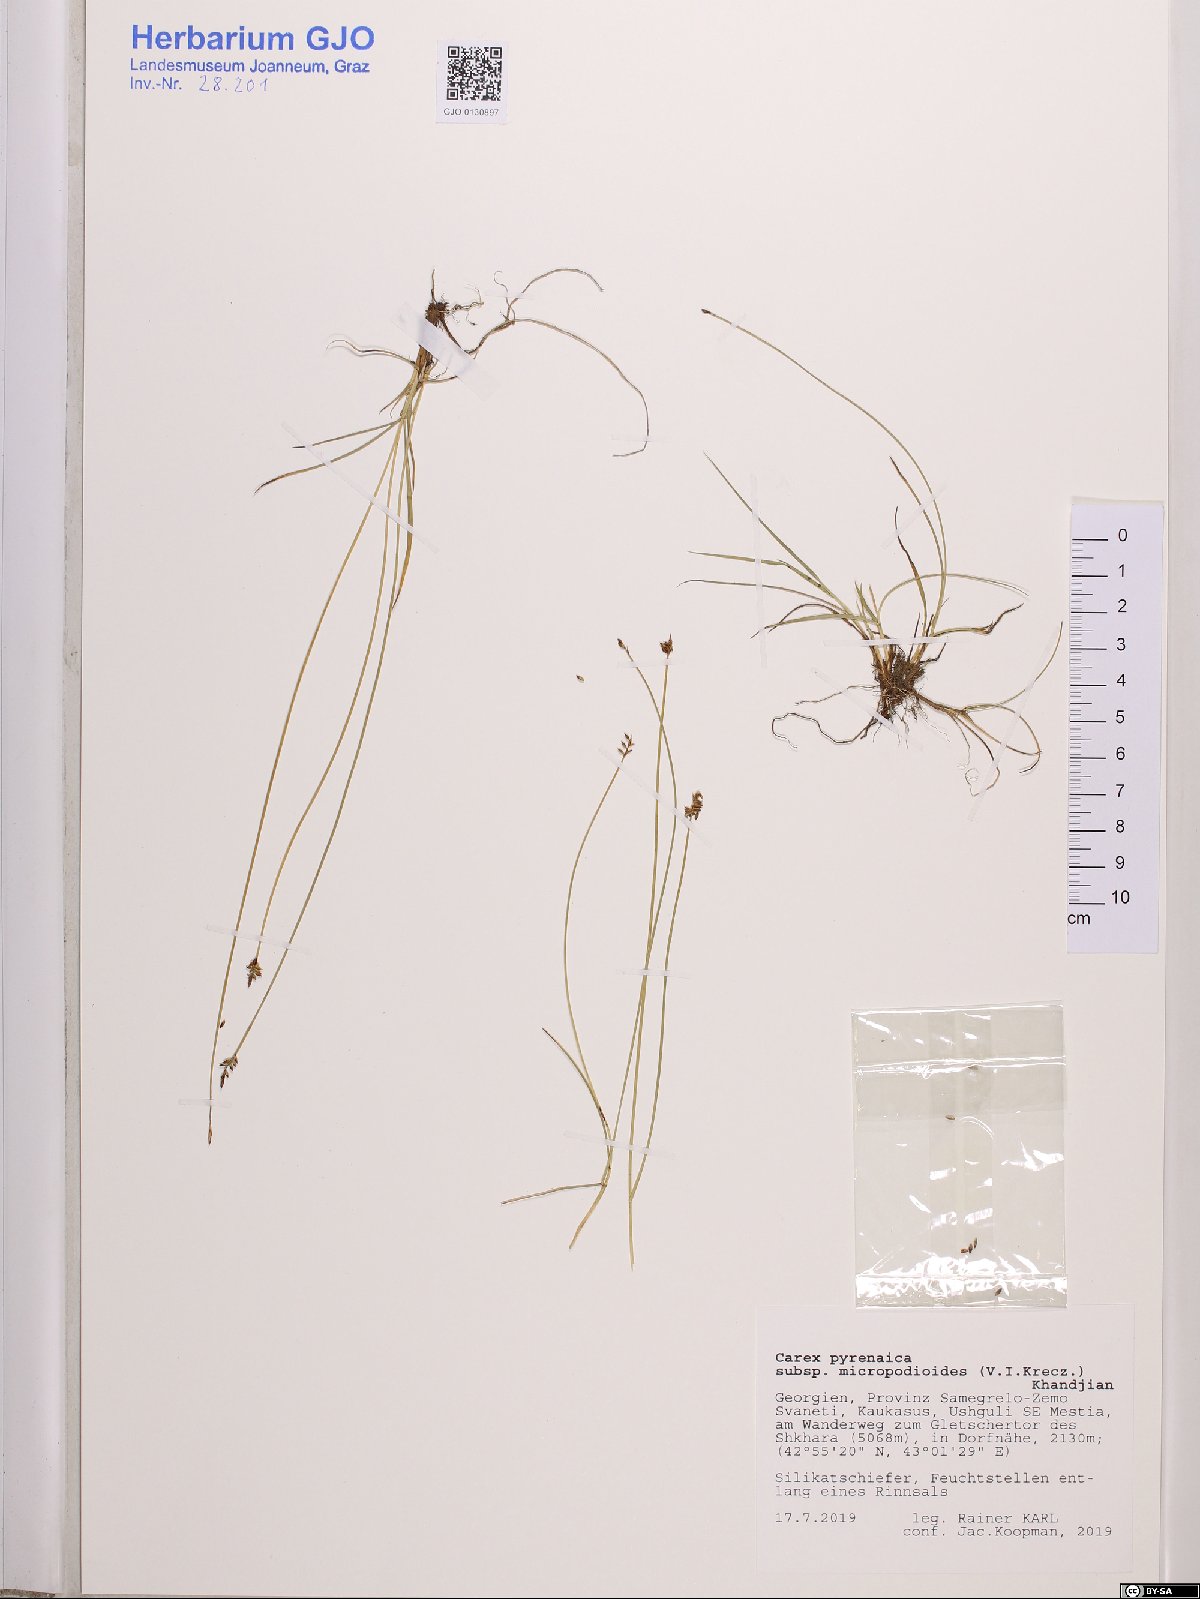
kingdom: Plantae
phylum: Tracheophyta
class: Liliopsida
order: Poales
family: Cyperaceae
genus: Carex
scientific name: Carex pyrenaica
